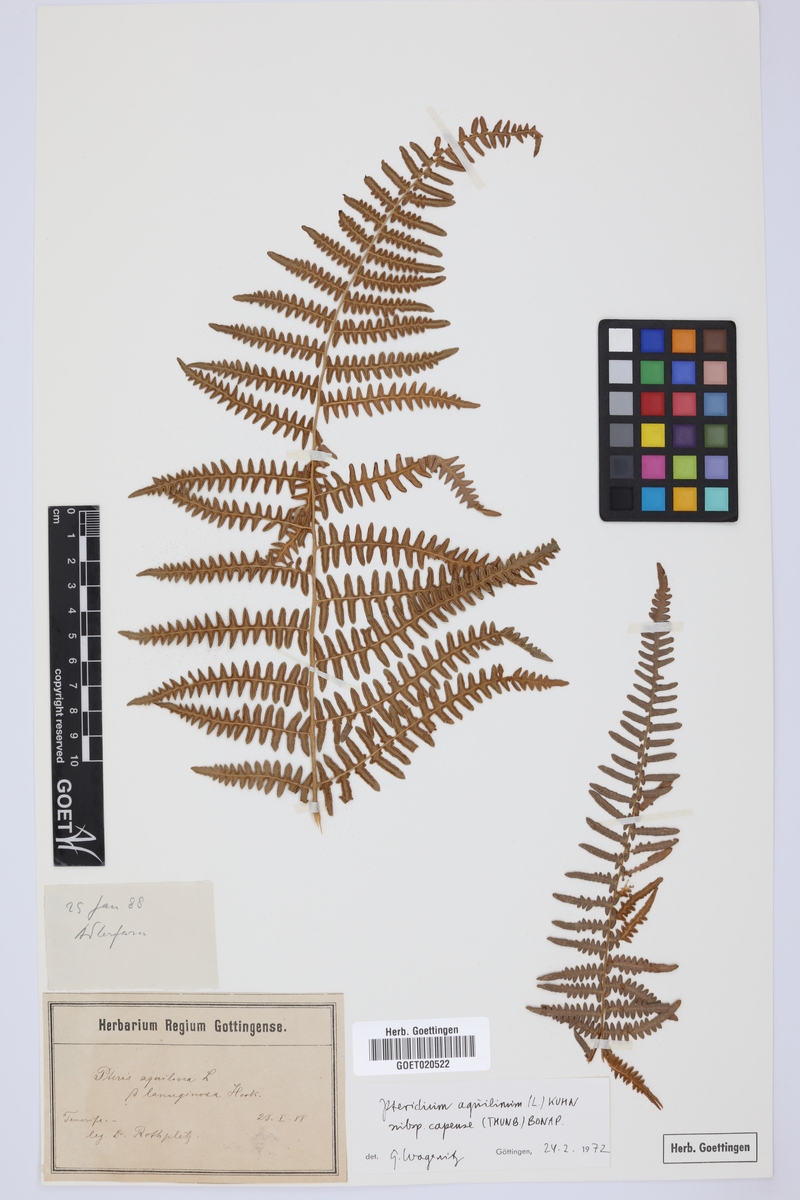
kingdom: Plantae
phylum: Tracheophyta
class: Polypodiopsida
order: Polypodiales
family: Dennstaedtiaceae
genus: Pteridium
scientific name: Pteridium aquilinum
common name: Bracken
